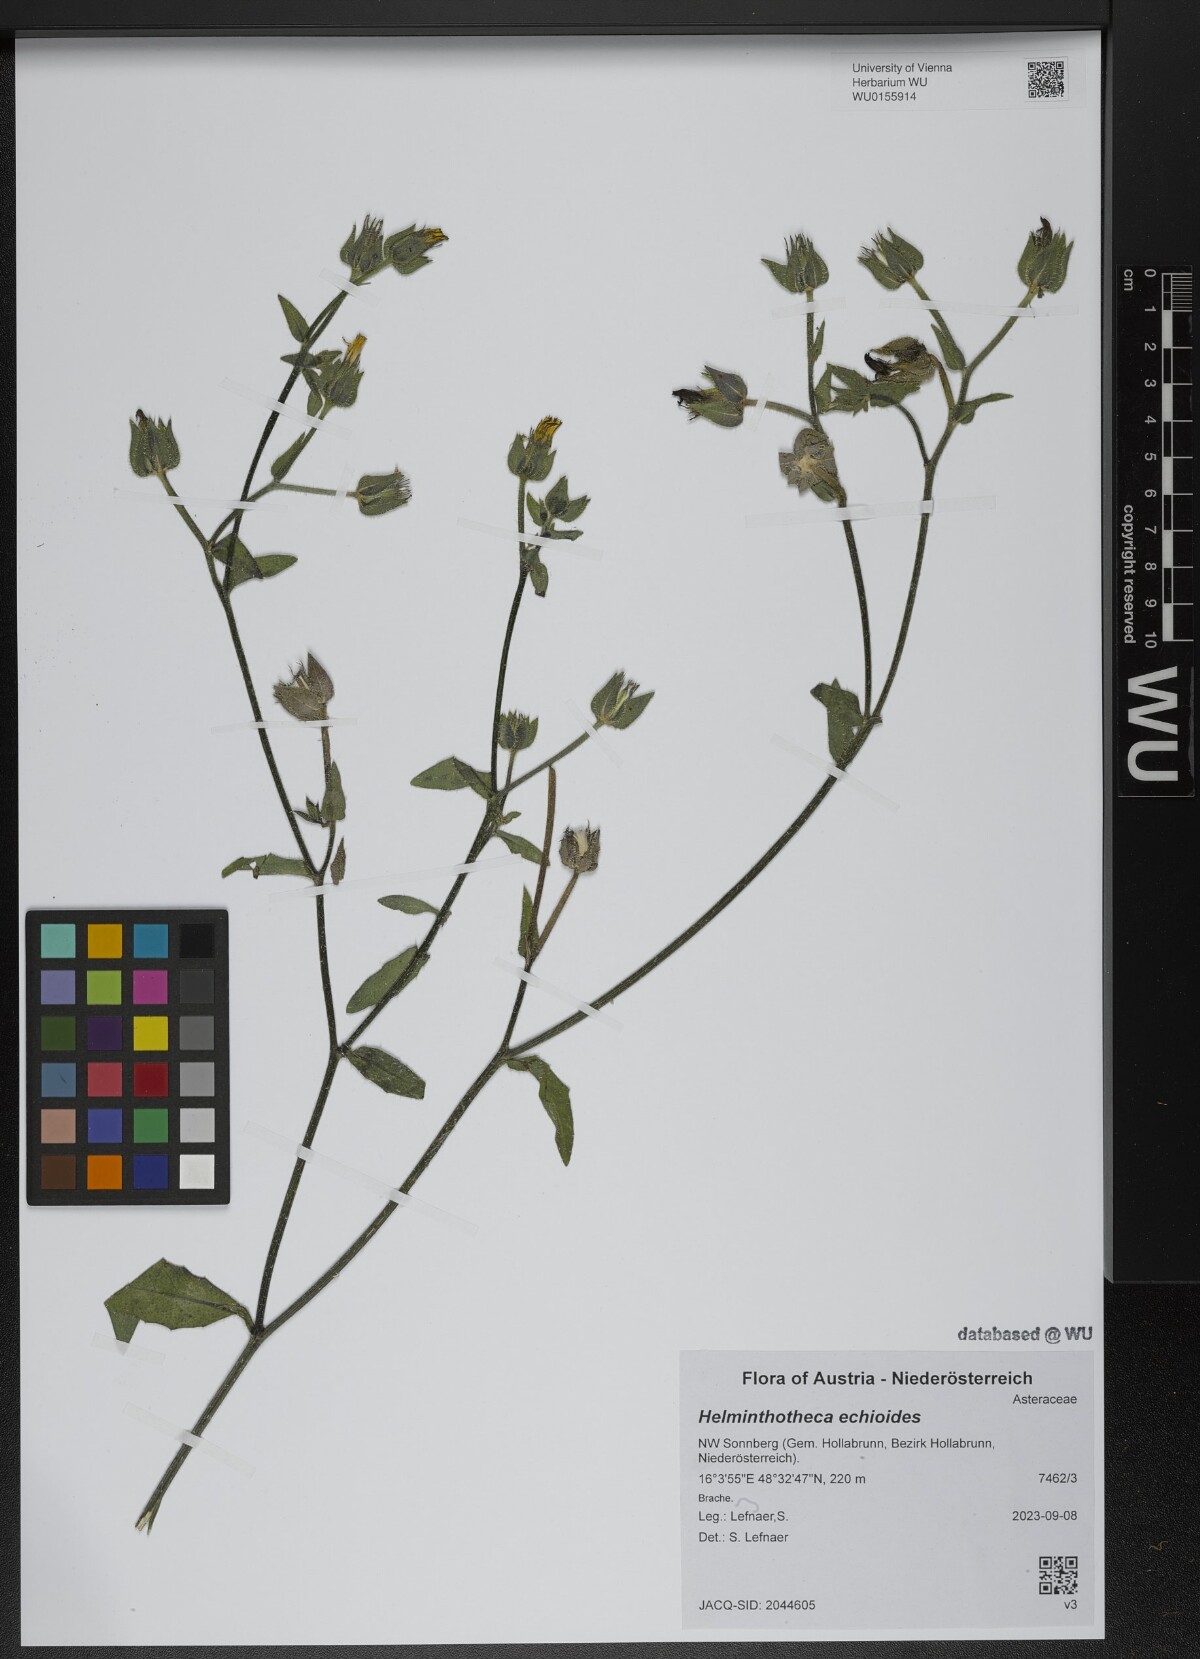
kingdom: Plantae
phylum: Tracheophyta
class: Magnoliopsida
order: Asterales
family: Asteraceae
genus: Helminthotheca
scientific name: Helminthotheca echioides
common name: Ox-tongue
